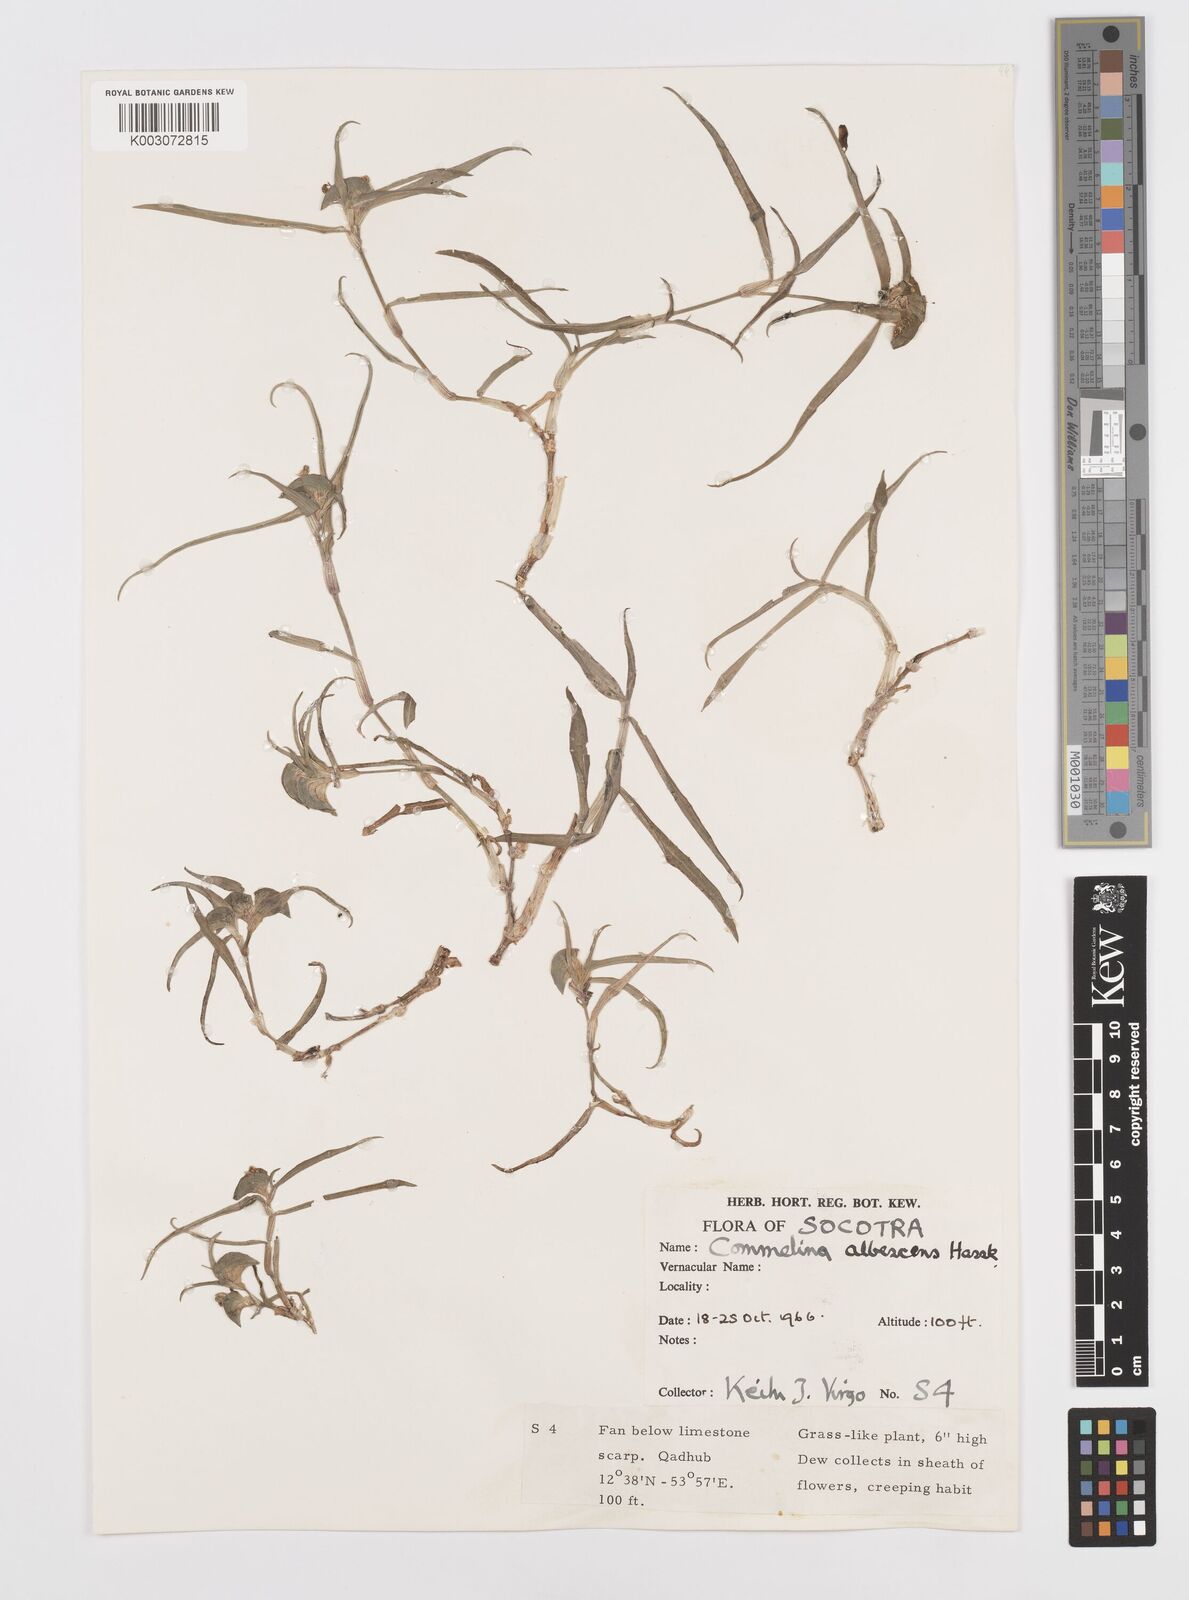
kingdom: Plantae
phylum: Tracheophyta
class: Liliopsida
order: Commelinales
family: Commelinaceae
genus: Commelina
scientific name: Commelina albescens
